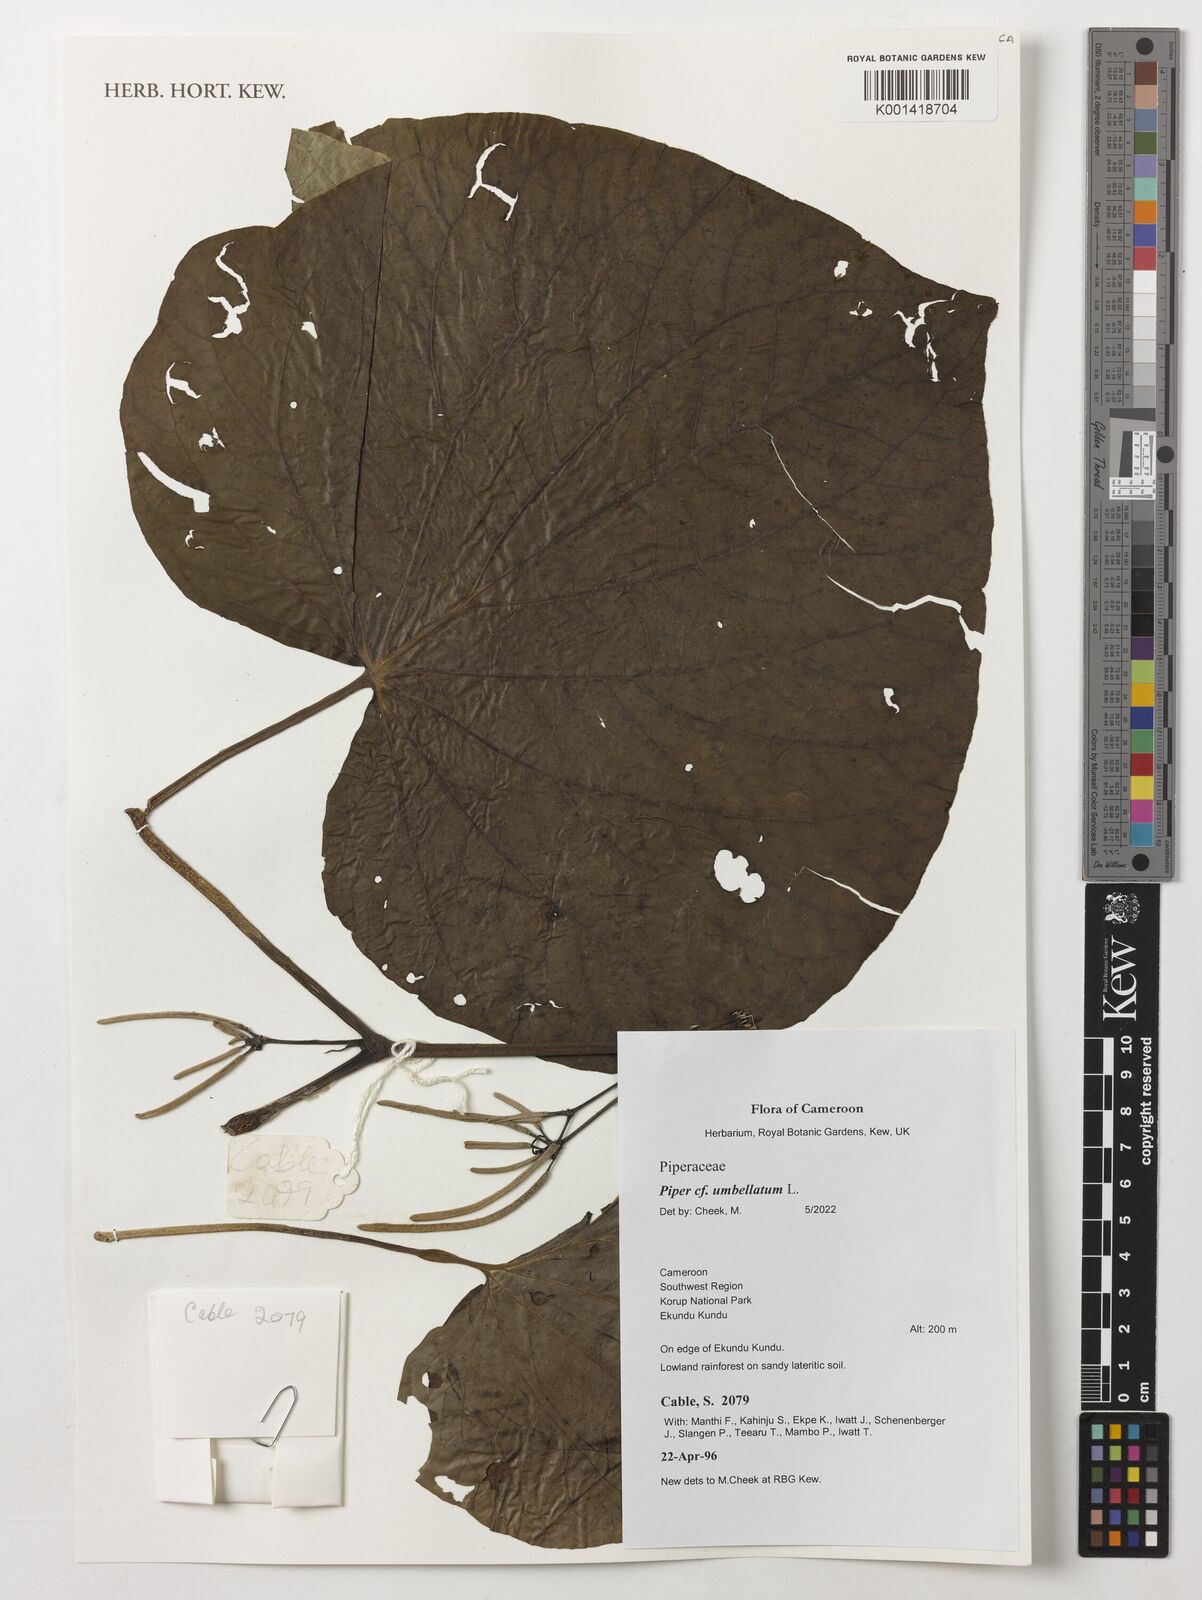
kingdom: Plantae
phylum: Tracheophyta
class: Magnoliopsida
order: Piperales
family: Piperaceae
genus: Piper
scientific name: Piper umbellatum
